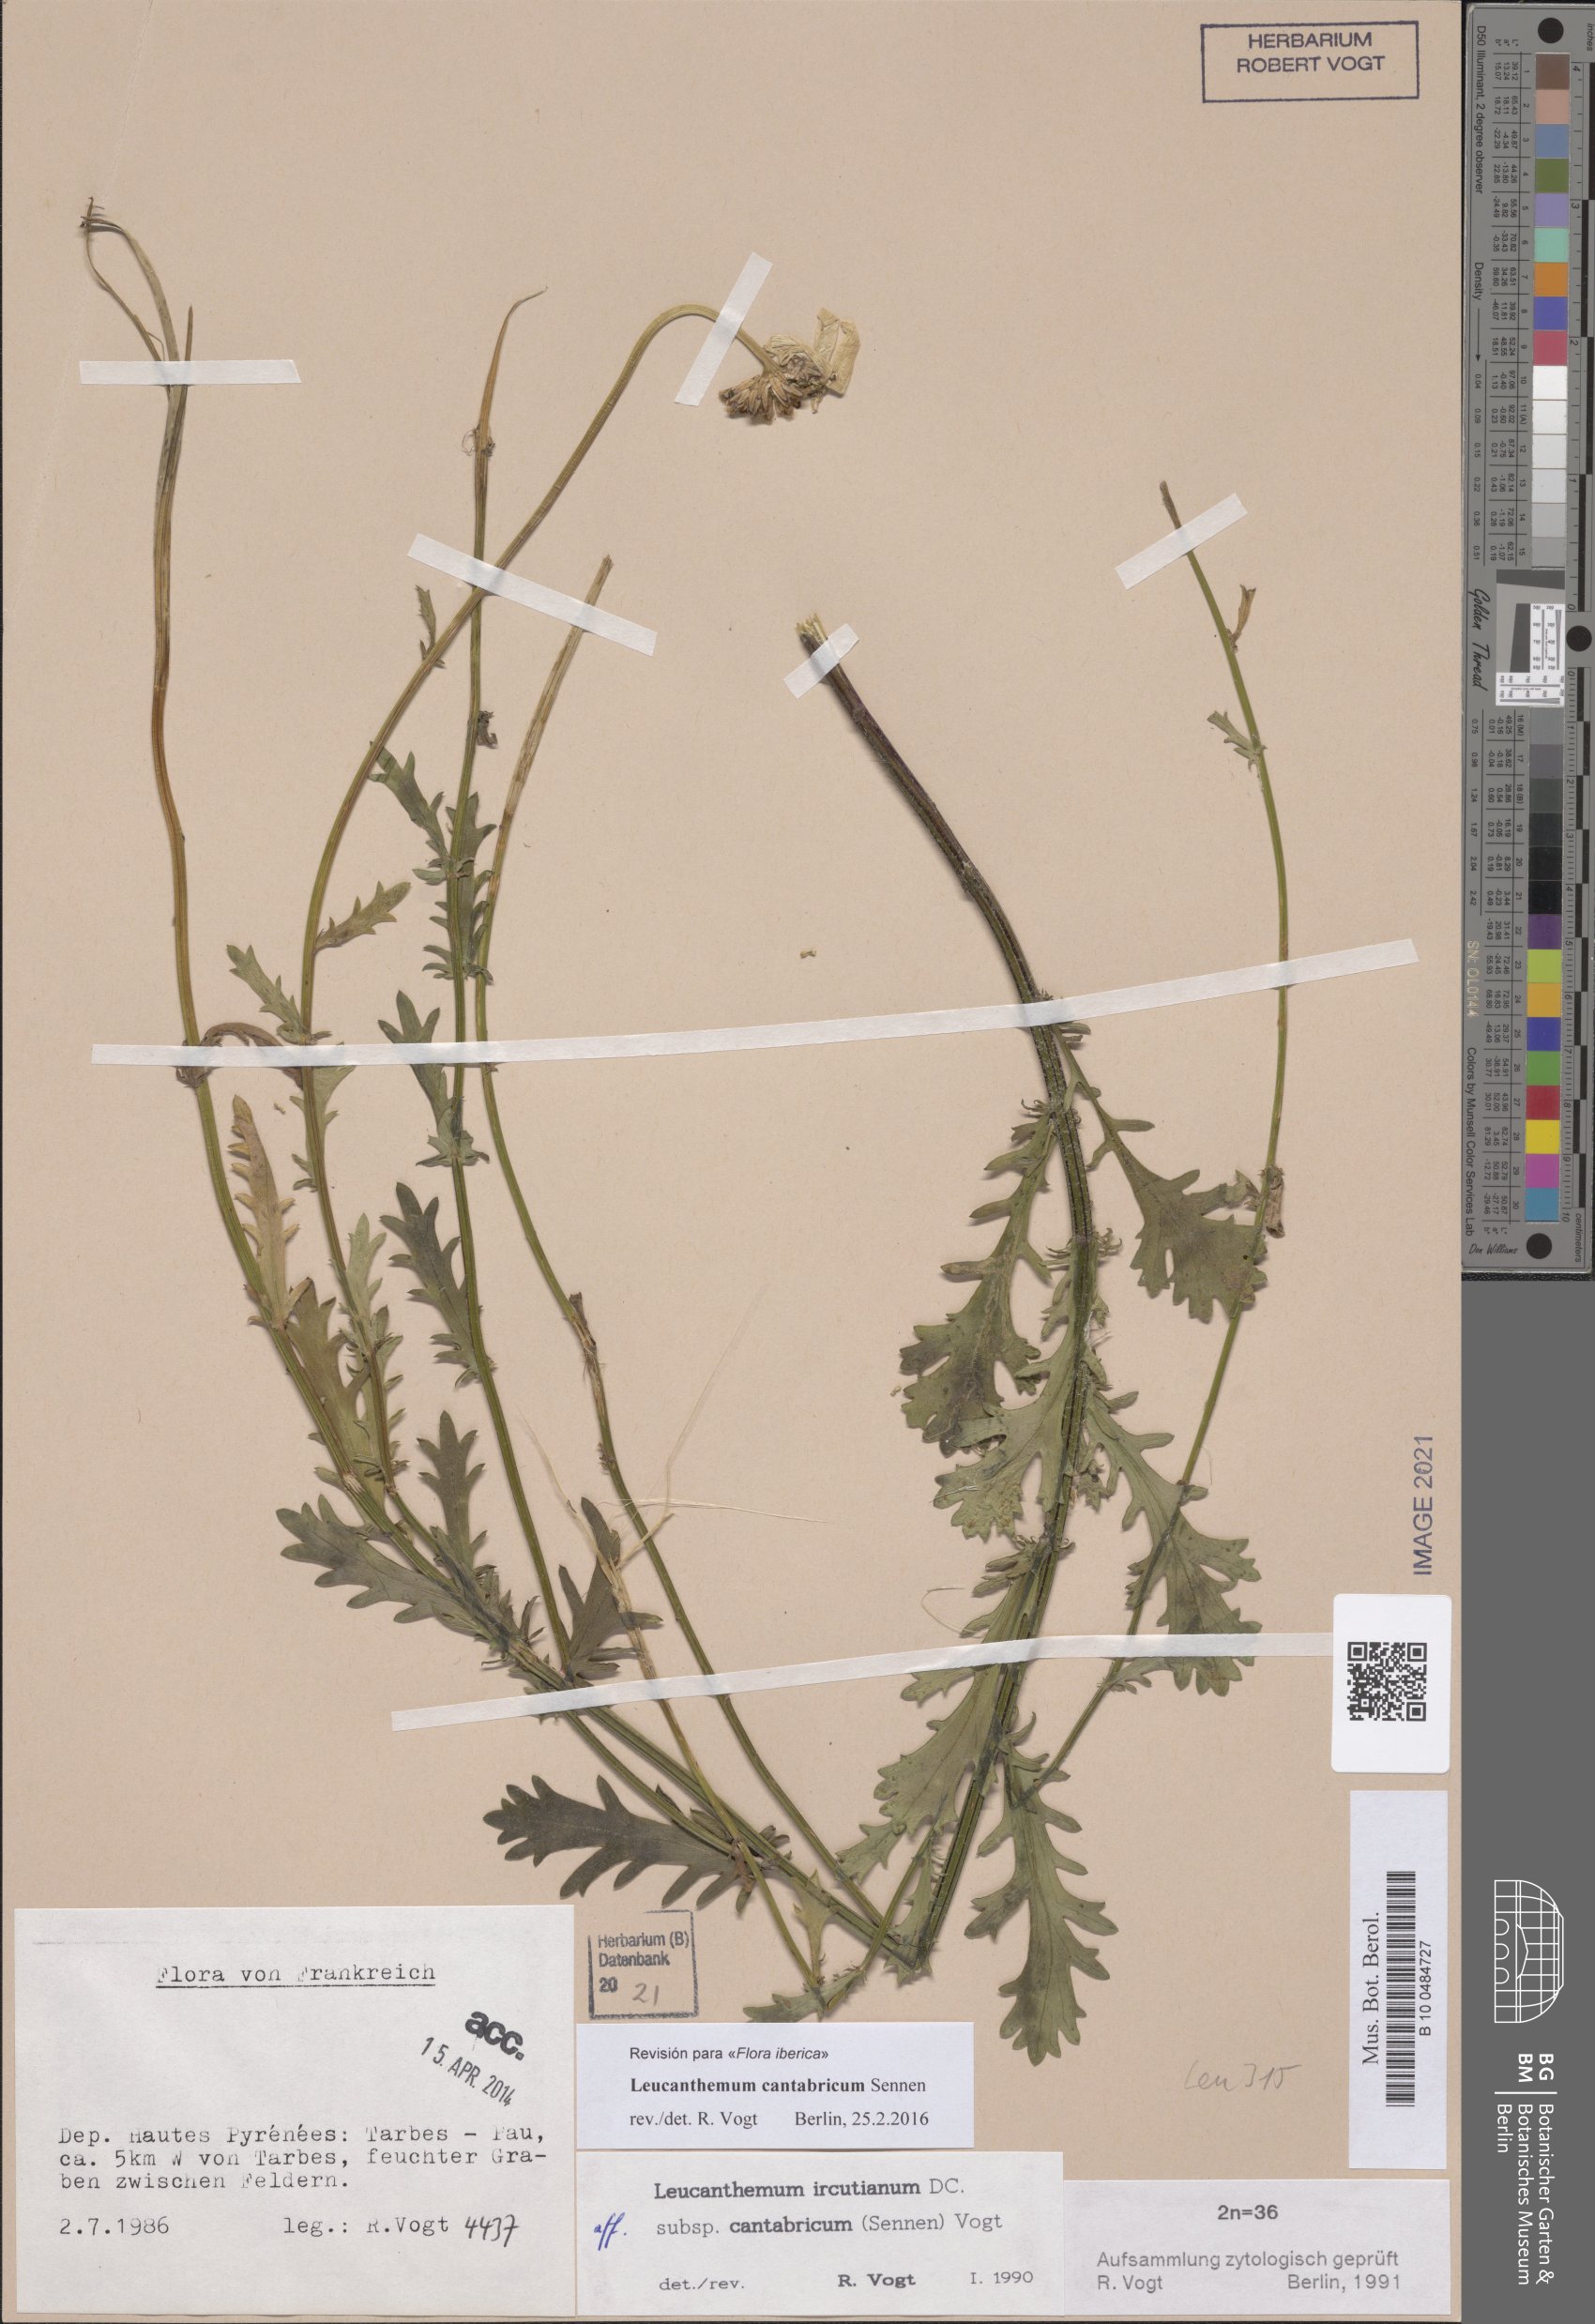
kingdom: Plantae
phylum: Tracheophyta
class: Magnoliopsida
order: Asterales
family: Asteraceae
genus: Leucanthemum
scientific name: Leucanthemum cantabricum
